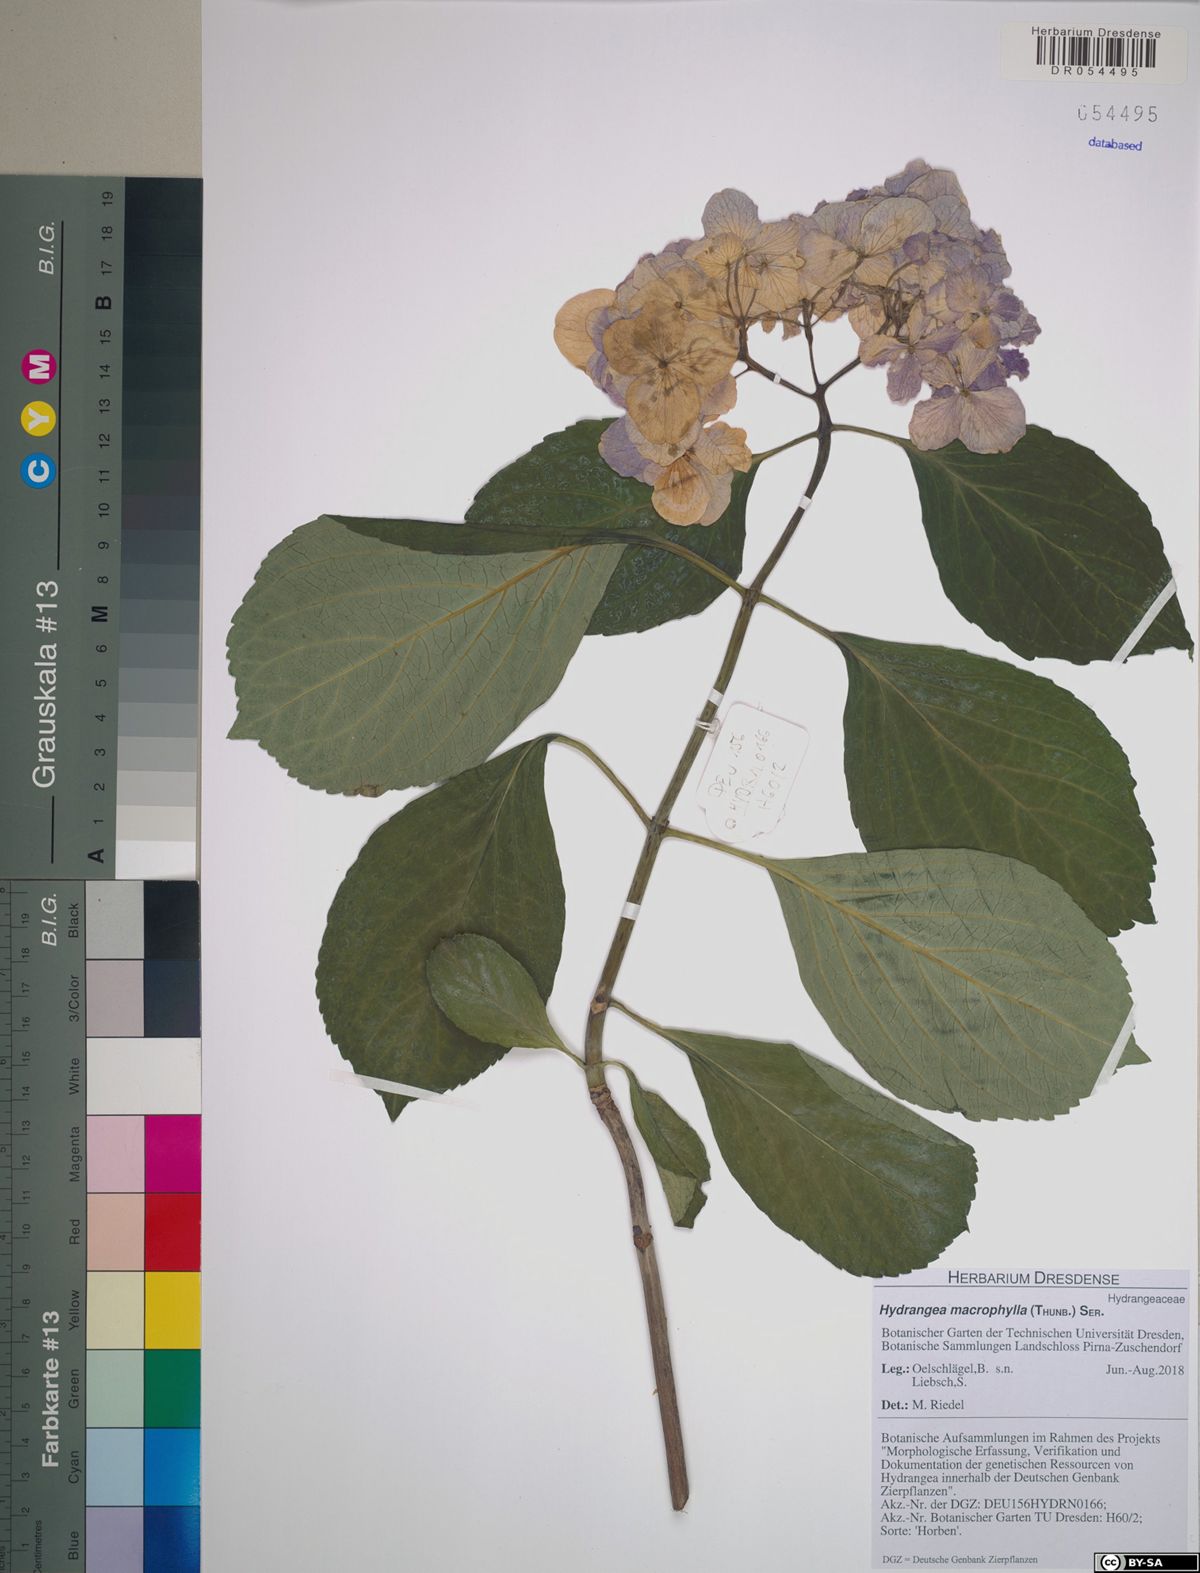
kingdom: Plantae
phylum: Tracheophyta
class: Magnoliopsida
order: Cornales
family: Hydrangeaceae
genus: Hydrangea
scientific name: Hydrangea macrophylla
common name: Hydrangea
